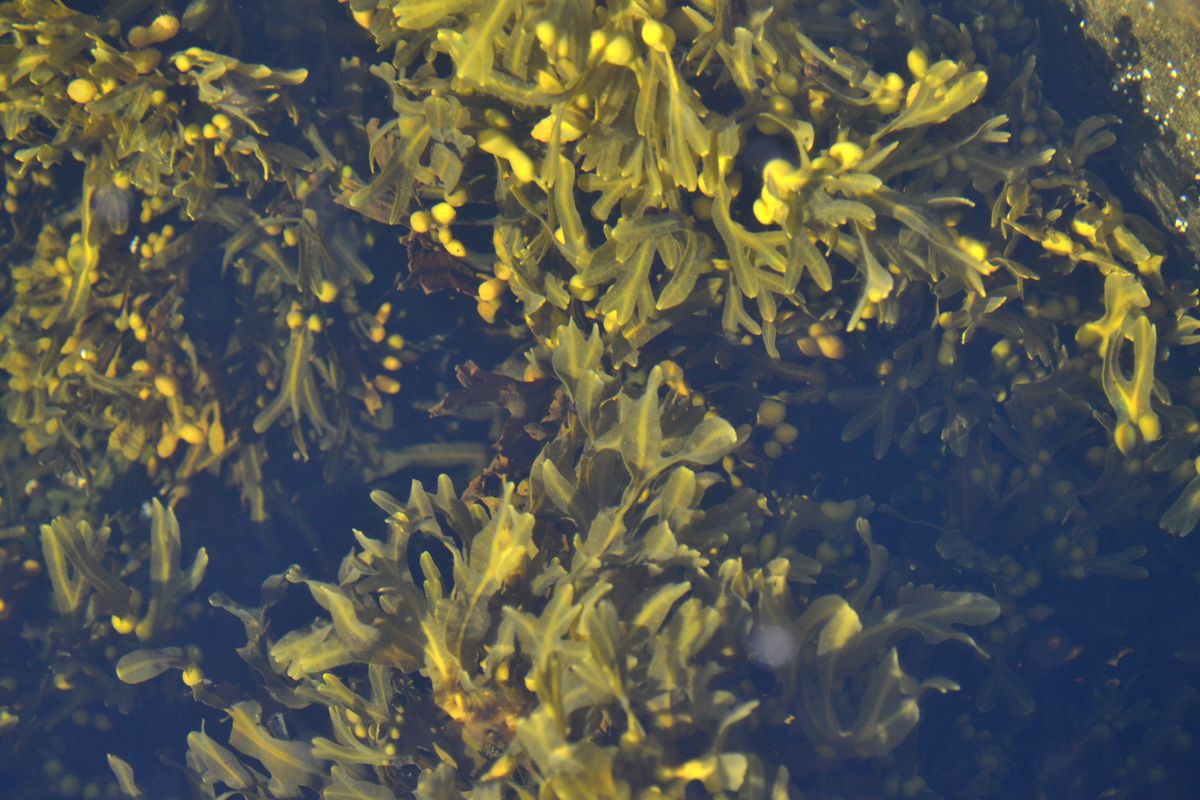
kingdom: Plantae
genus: Fucus
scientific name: Fucus
